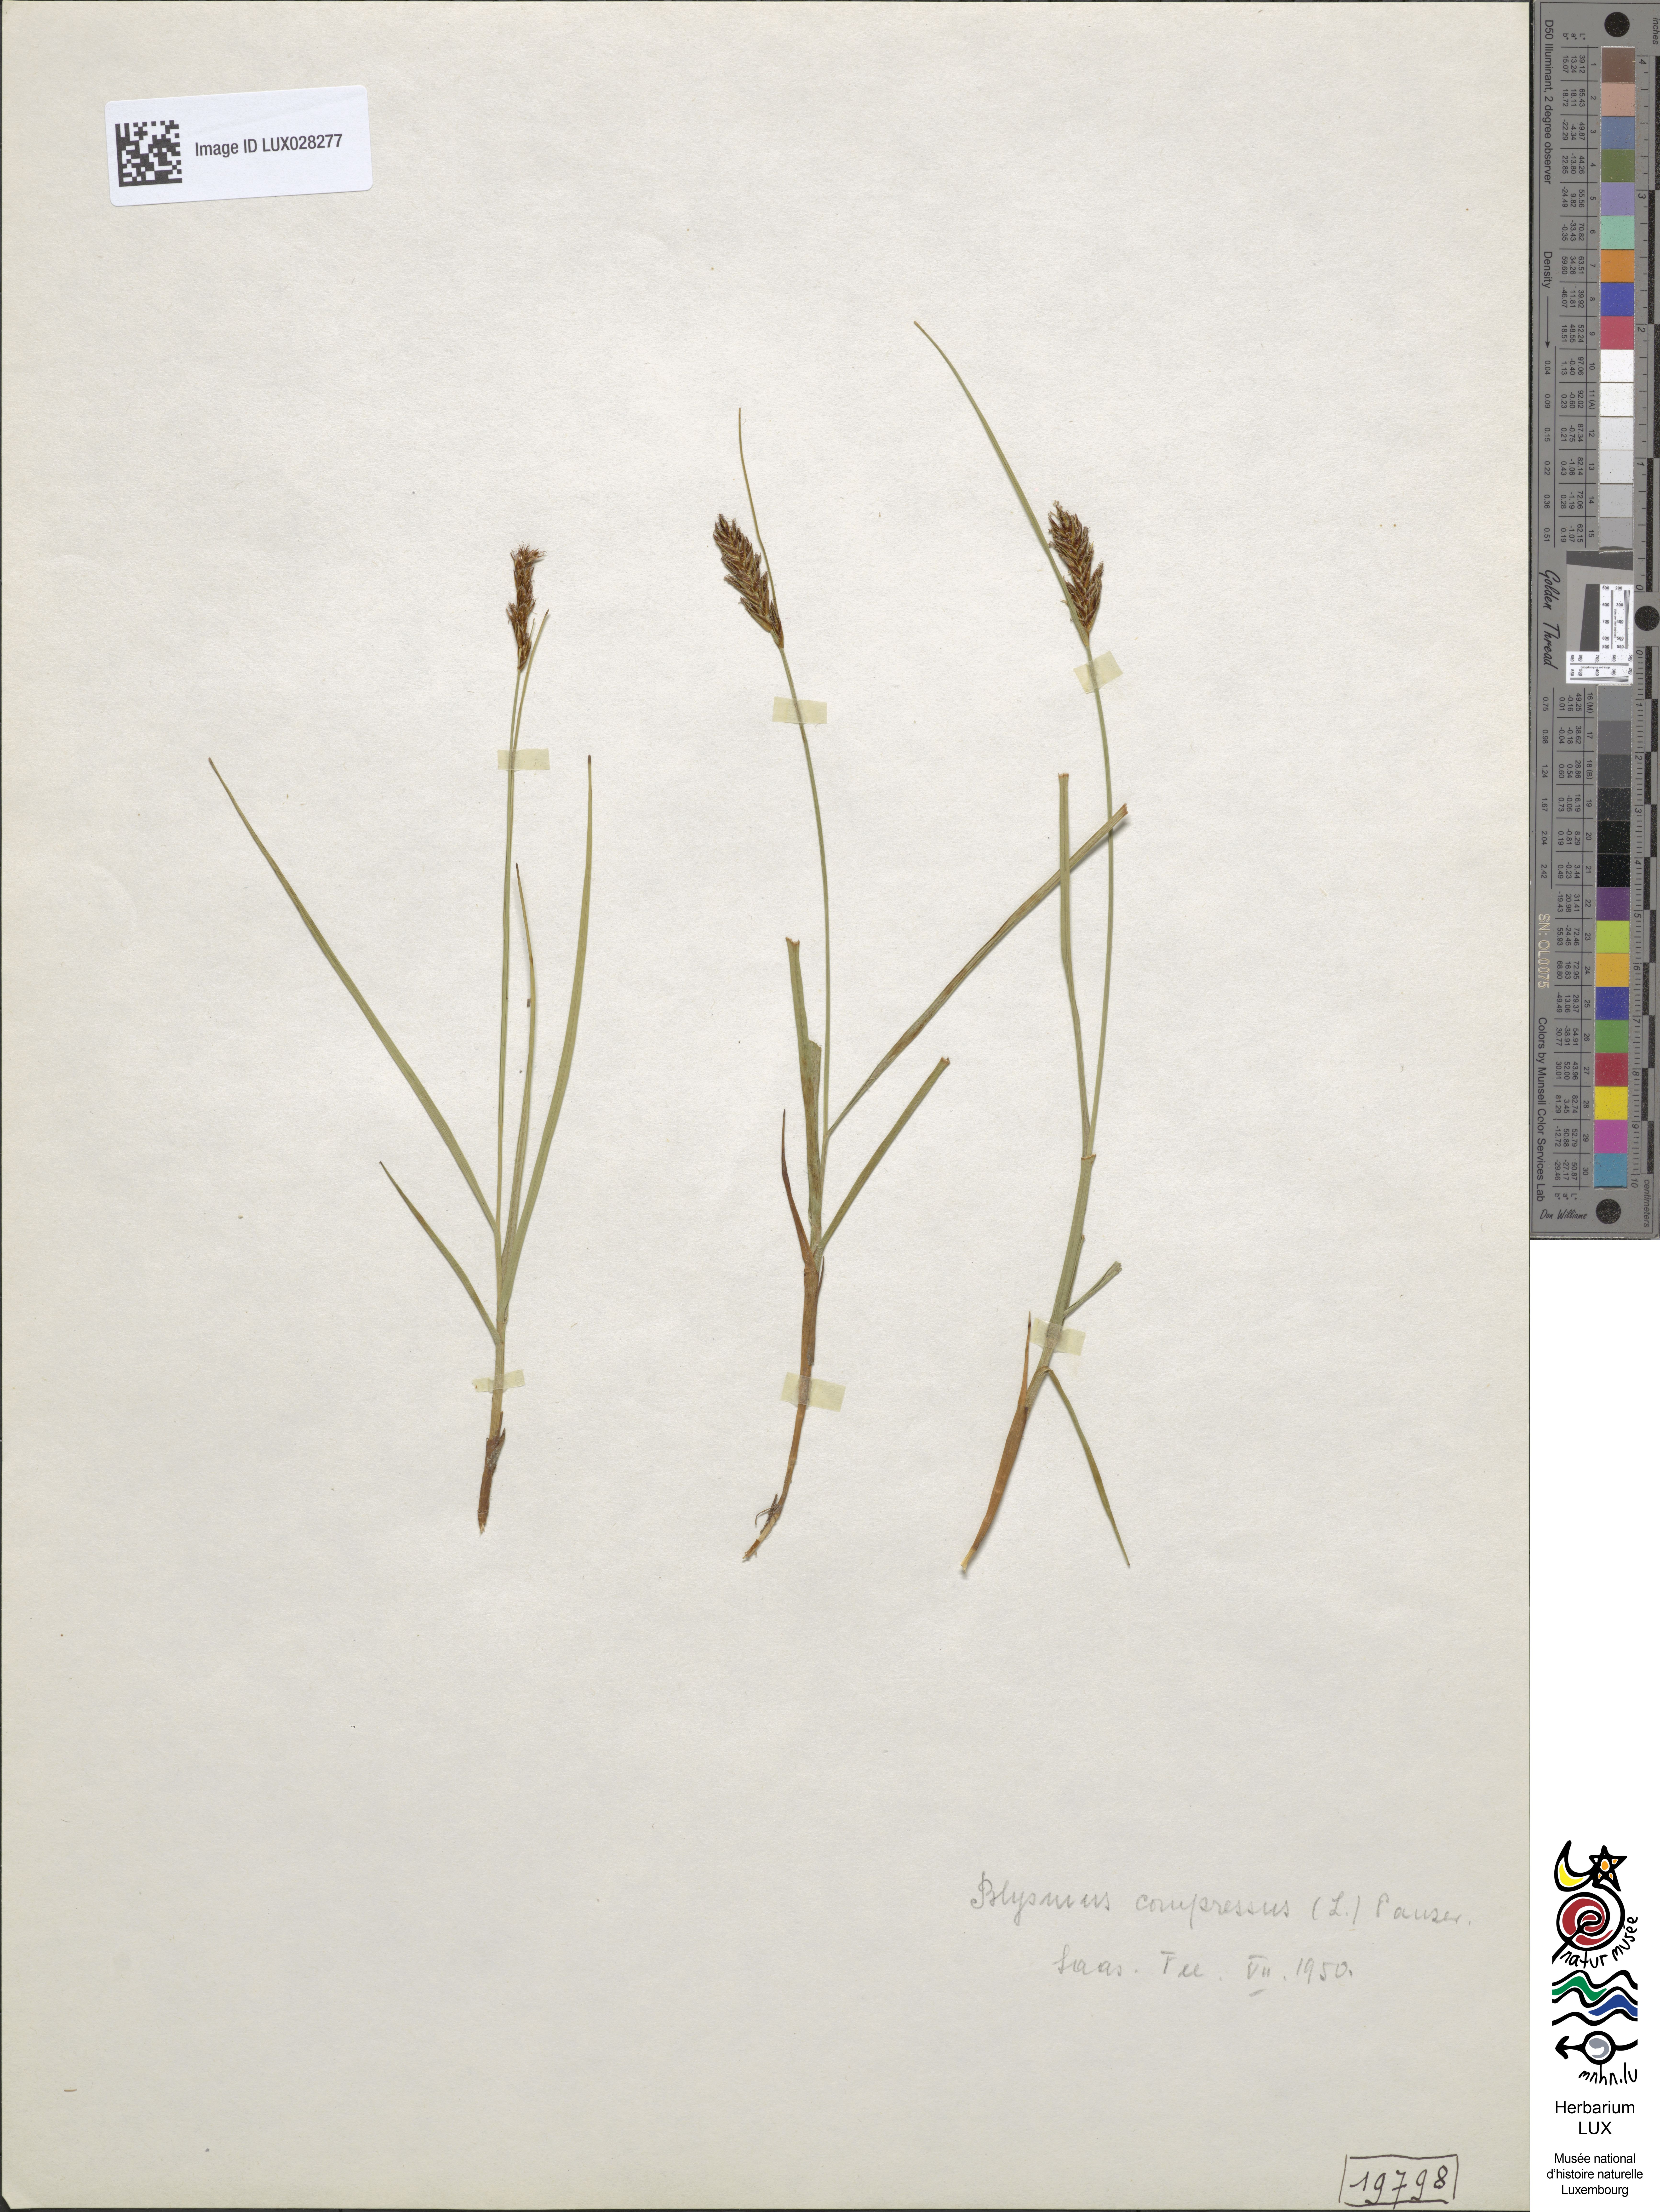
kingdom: Plantae
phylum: Tracheophyta
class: Liliopsida
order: Poales
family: Cyperaceae
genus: Blysmus
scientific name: Blysmus compressus
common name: Flat-sedge
